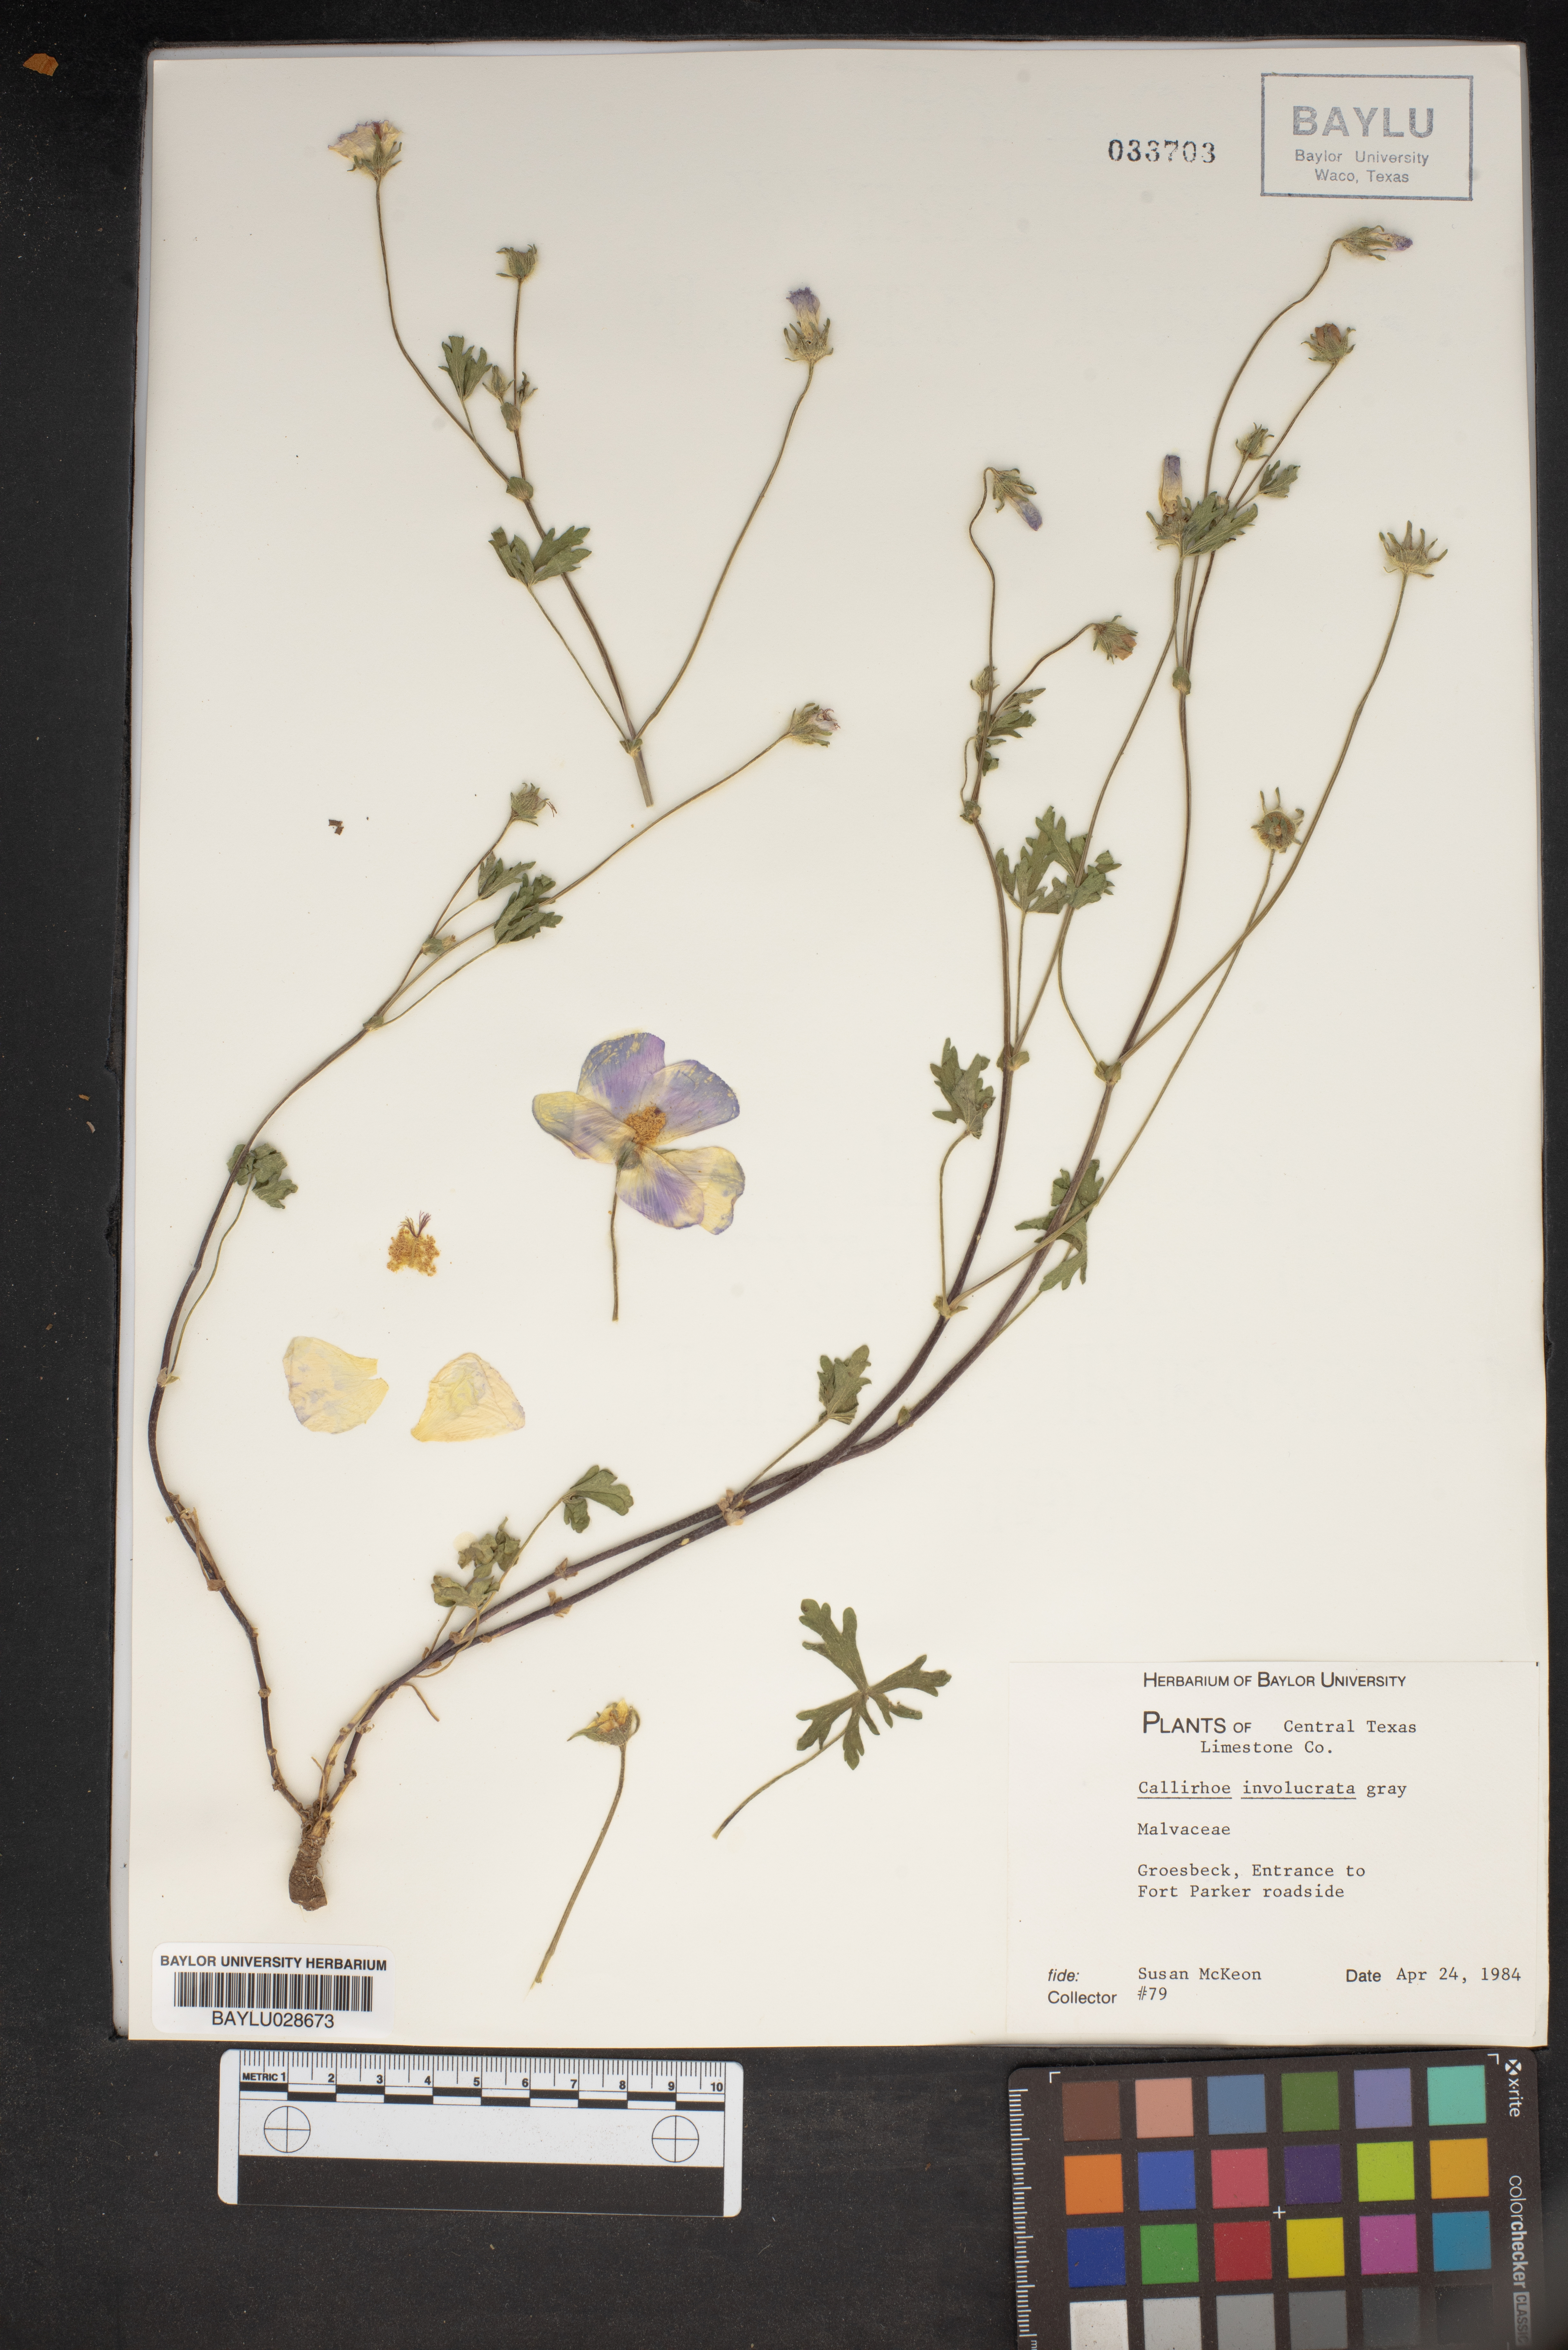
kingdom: Plantae
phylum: Tracheophyta
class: Magnoliopsida
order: Malvales
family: Malvaceae
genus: Callirhoe
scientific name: Callirhoe involucrata
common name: Purple poppy-mallow
